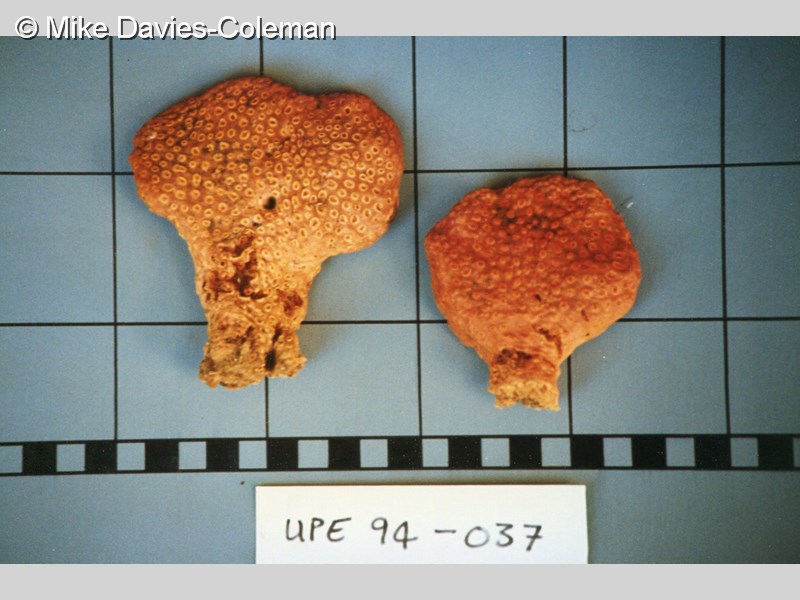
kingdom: Animalia
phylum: Porifera
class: Demospongiae
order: Poecilosclerida
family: Crellidae
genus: Crella
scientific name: Crella erecta
